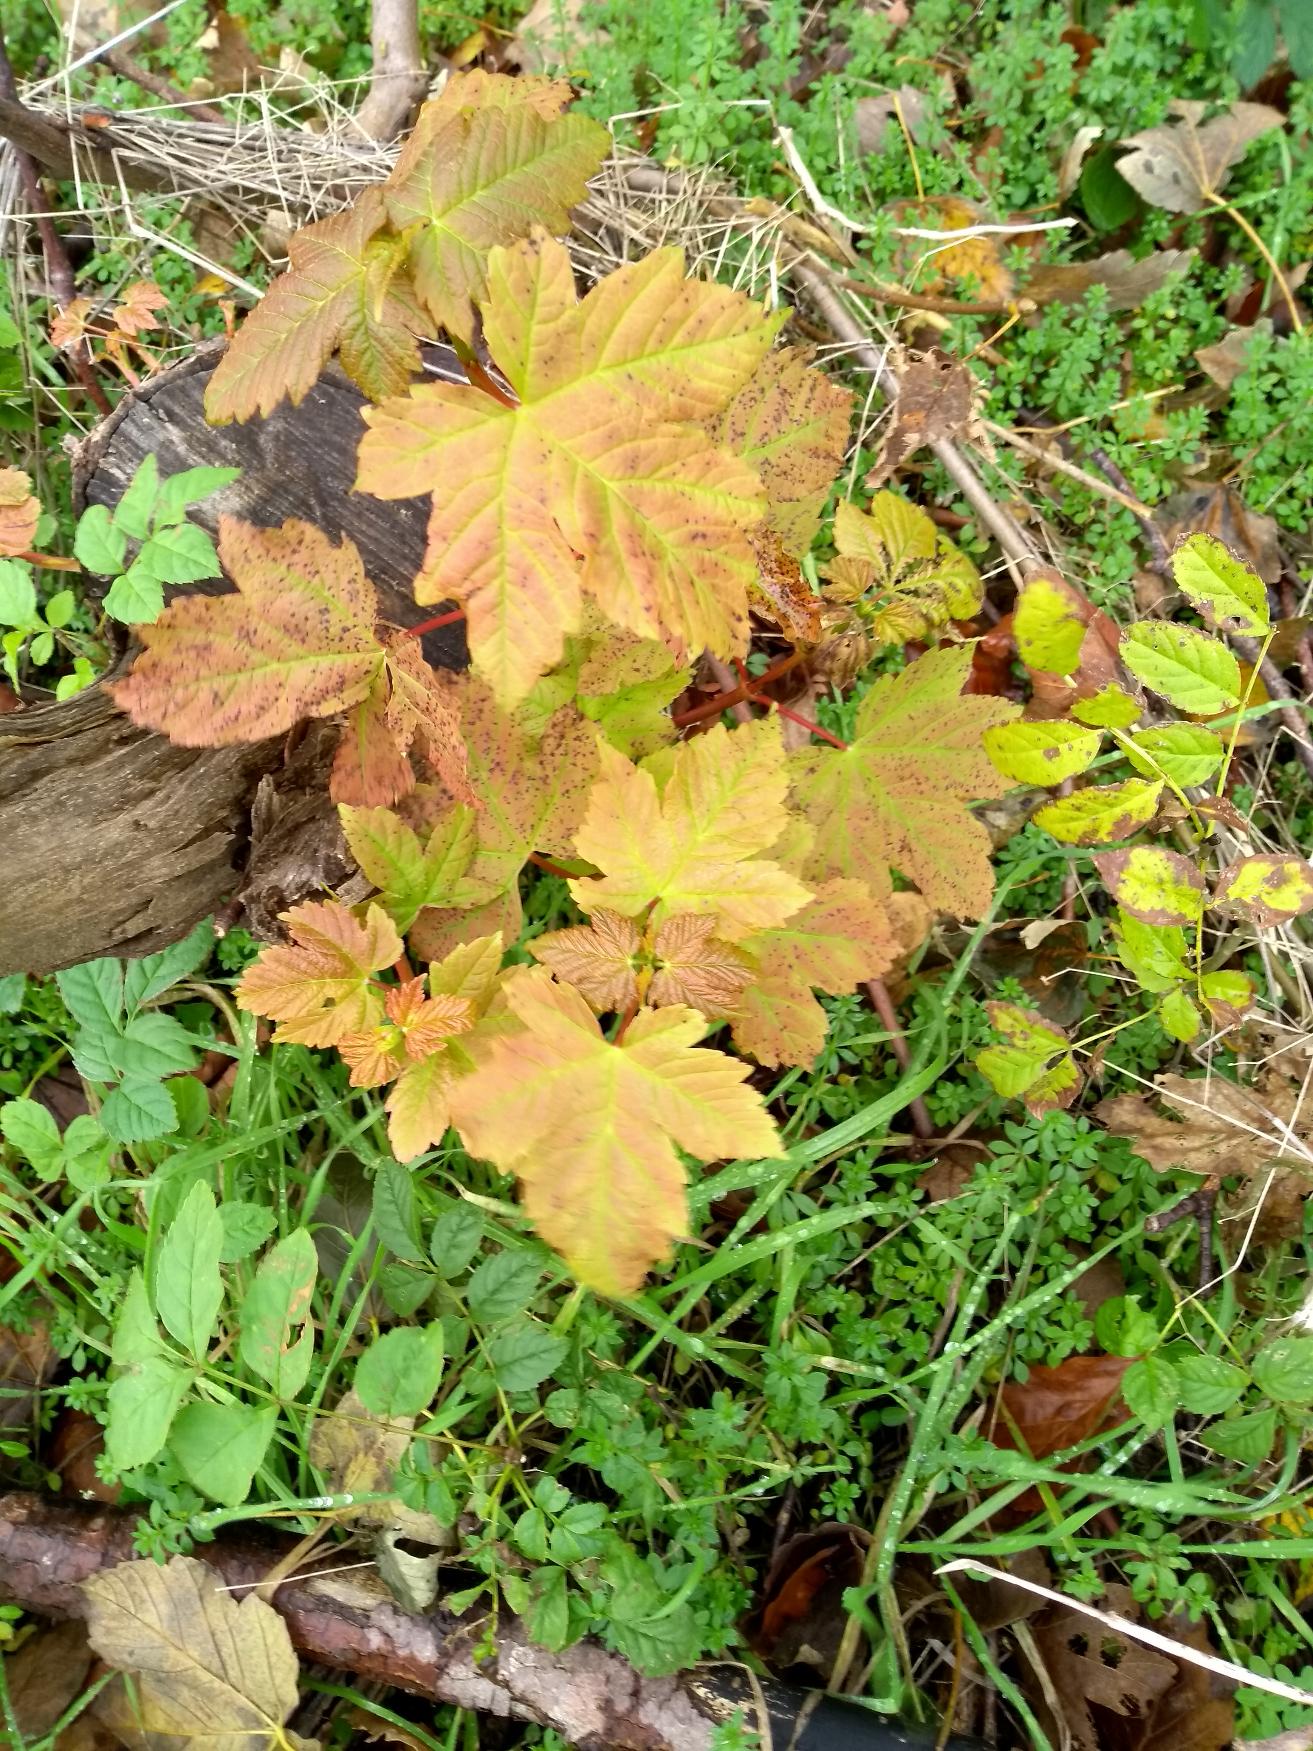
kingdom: Plantae
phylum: Tracheophyta
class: Magnoliopsida
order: Sapindales
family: Sapindaceae
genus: Acer
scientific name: Acer pseudoplatanus
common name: Ahorn
